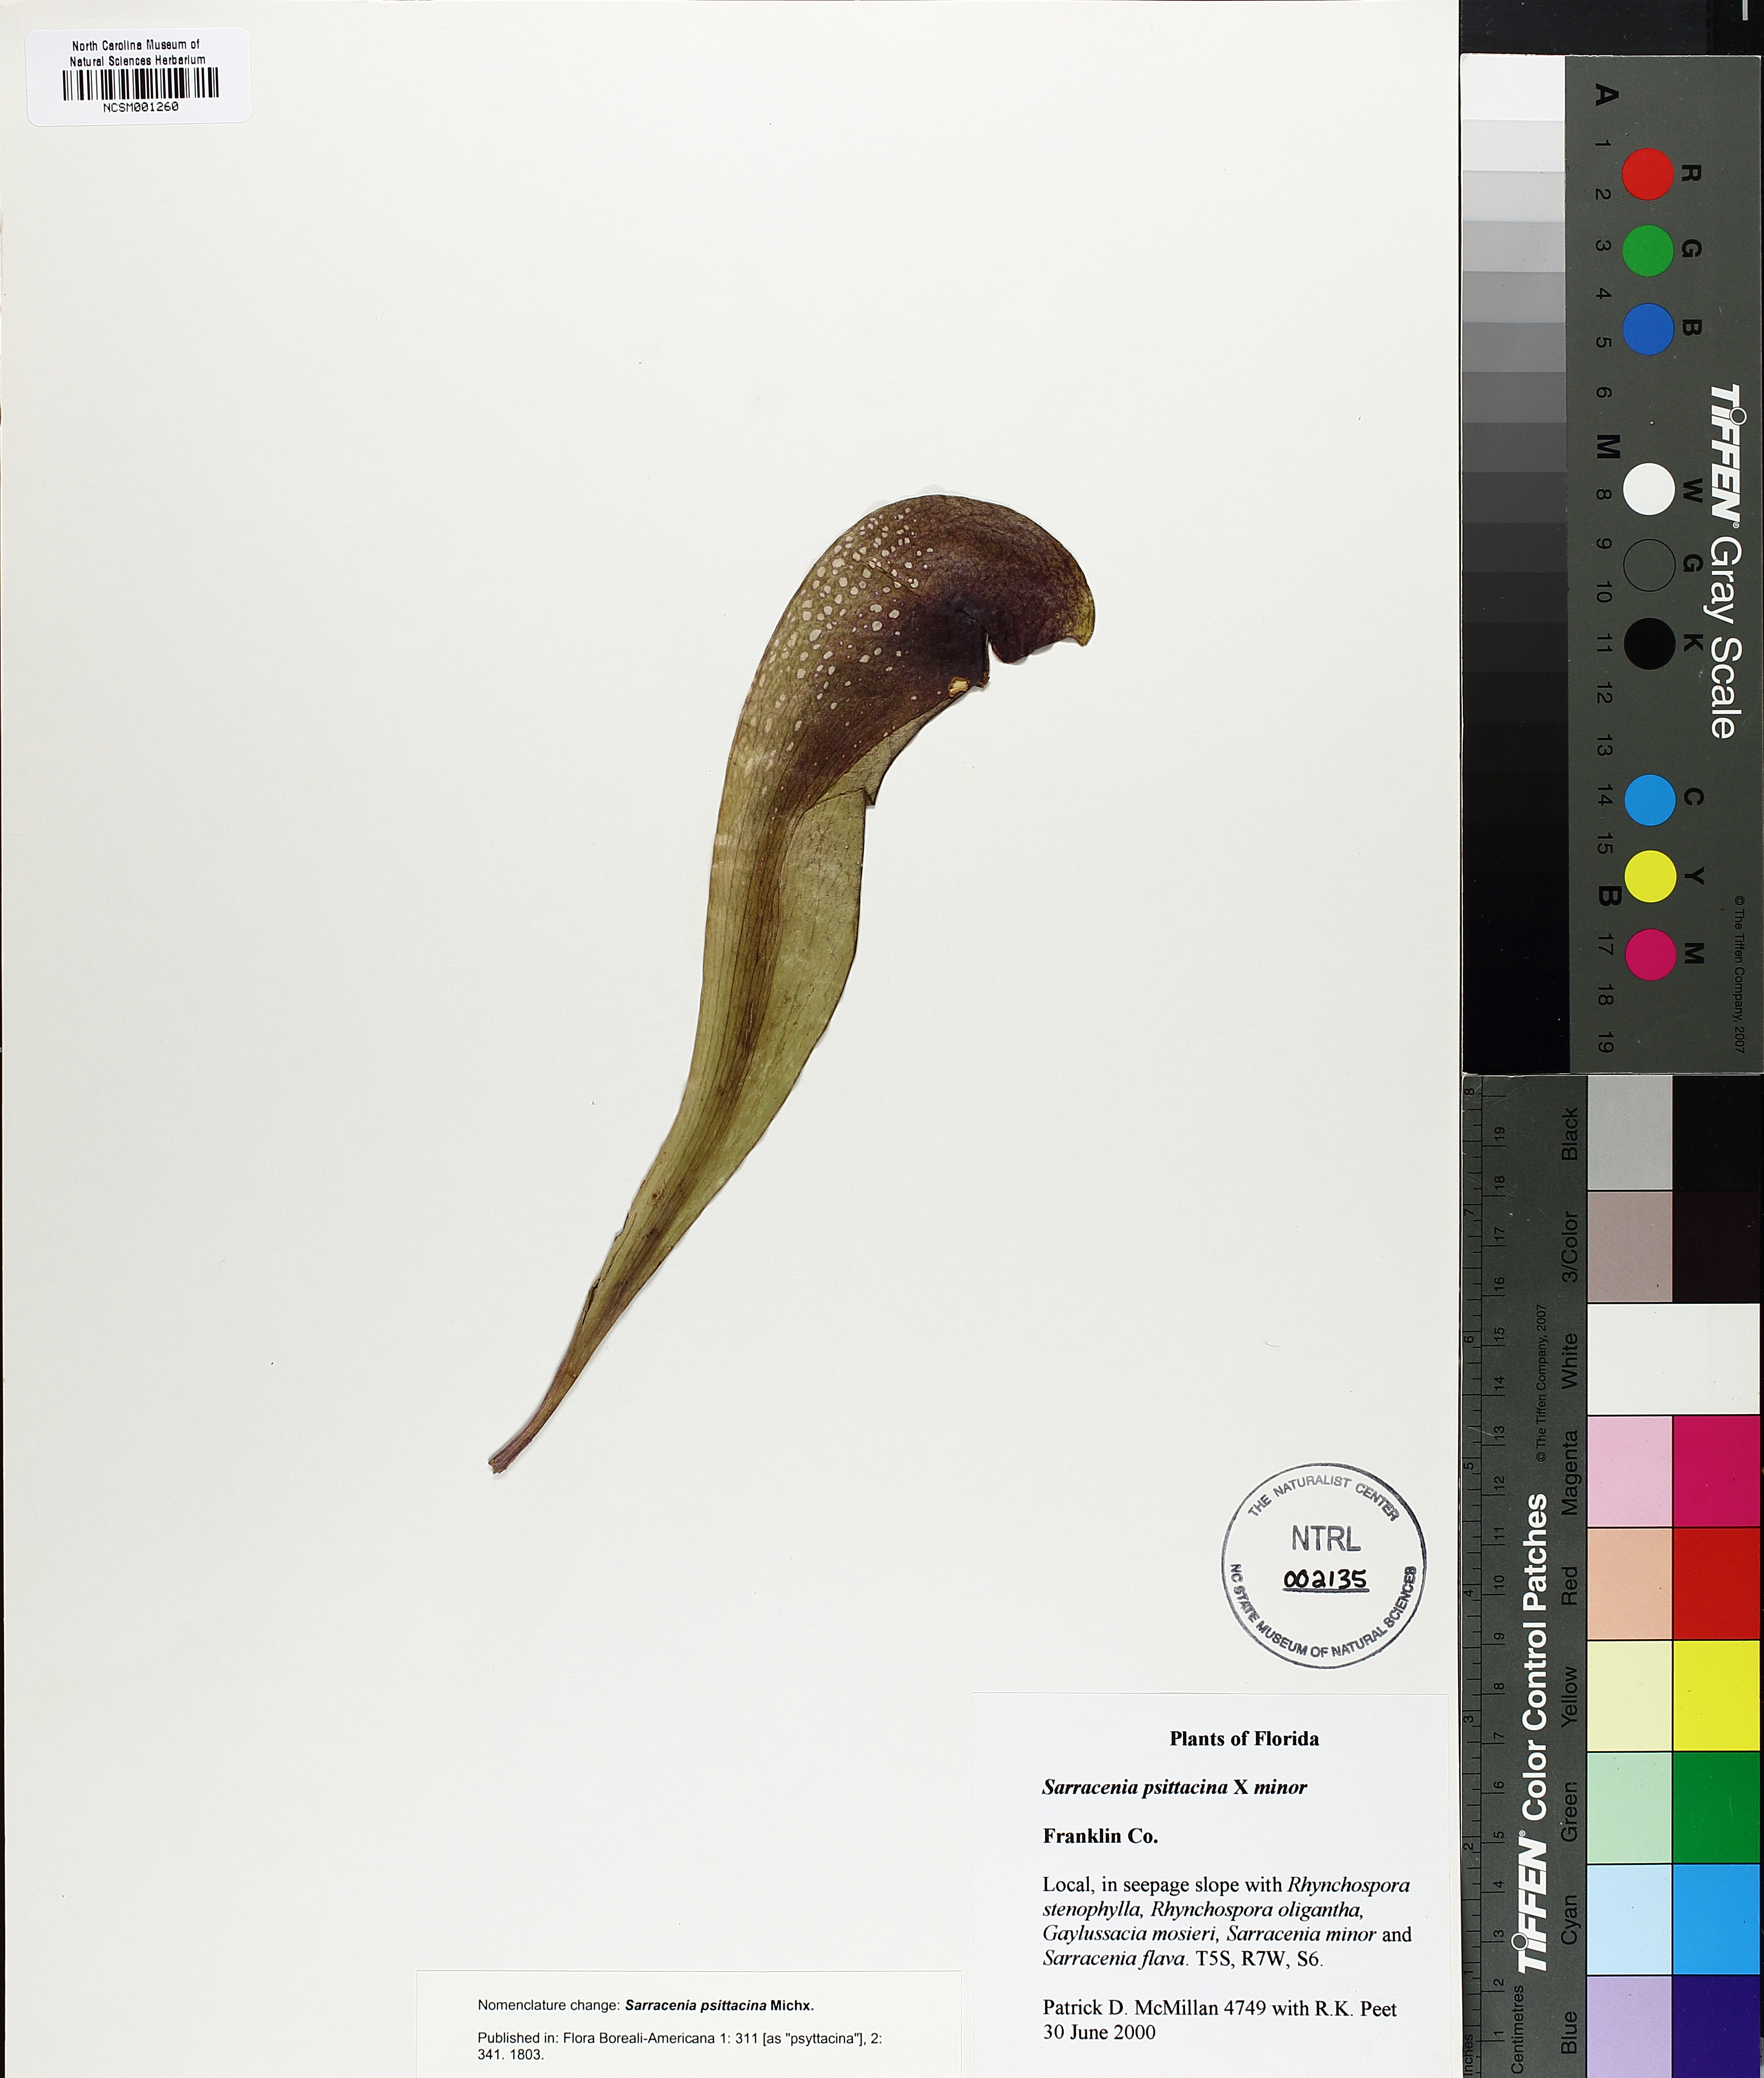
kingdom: Plantae
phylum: Tracheophyta
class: Magnoliopsida
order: Ericales
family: Sarraceniaceae
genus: Sarracenia
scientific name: Sarracenia psittacina
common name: Parrot pitcherplant
